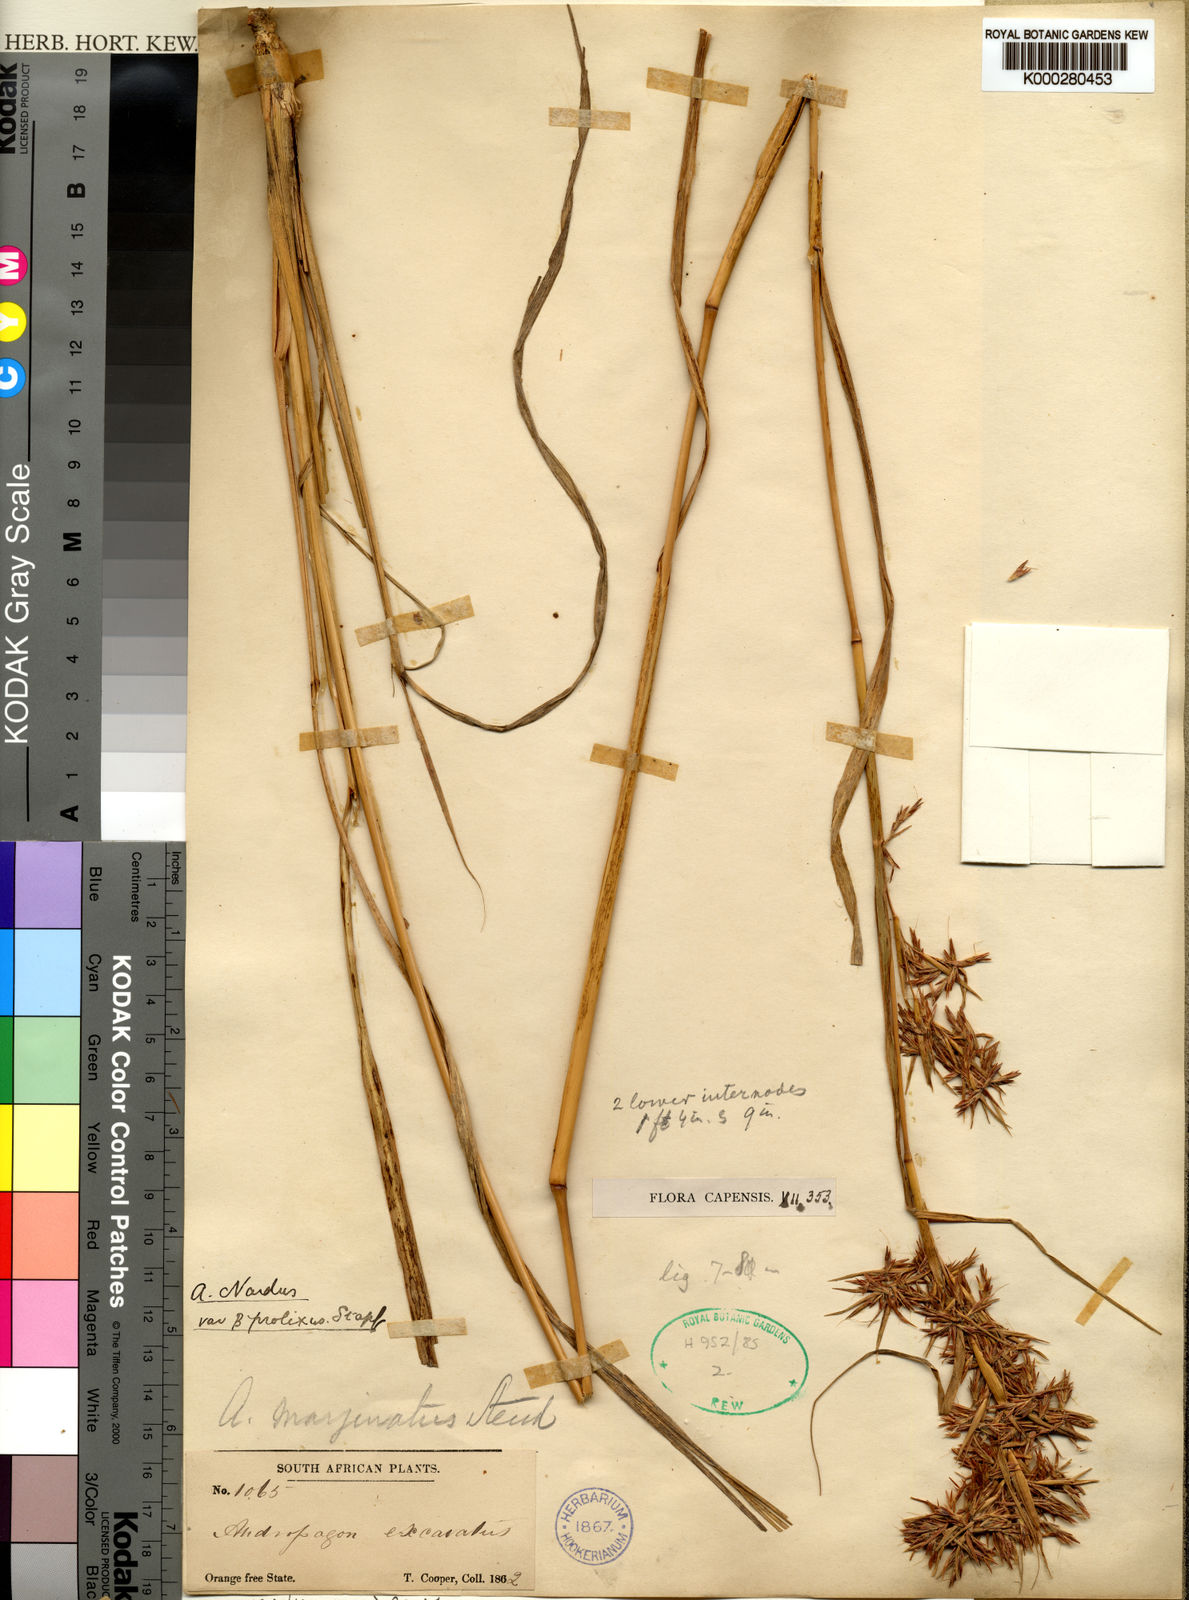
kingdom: Plantae
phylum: Tracheophyta
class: Liliopsida
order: Poales
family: Poaceae
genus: Cymbopogon
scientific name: Cymbopogon nardus
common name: Giant turpentine grass
